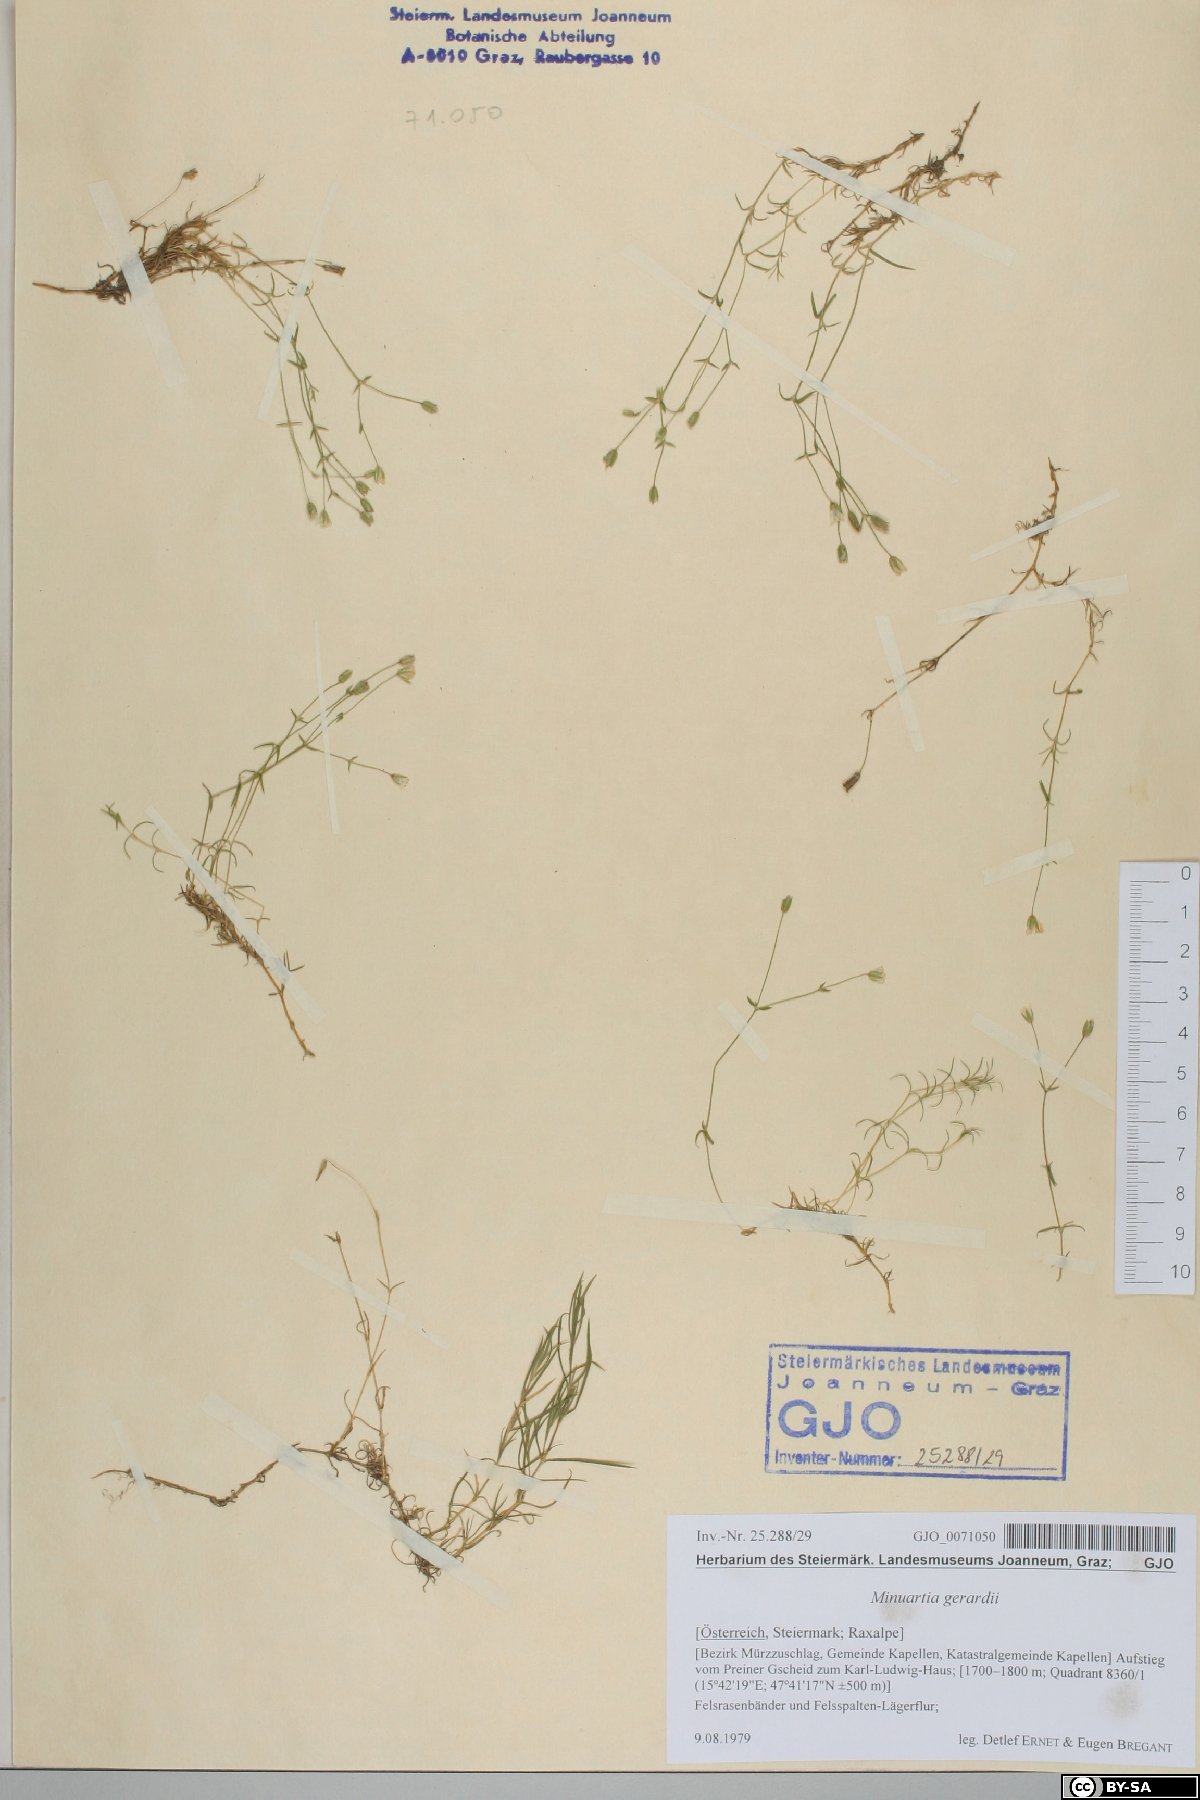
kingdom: Plantae
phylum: Tracheophyta
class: Magnoliopsida
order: Caryophyllales
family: Caryophyllaceae
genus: Sabulina
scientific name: Sabulina verna
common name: Spring sandwort
